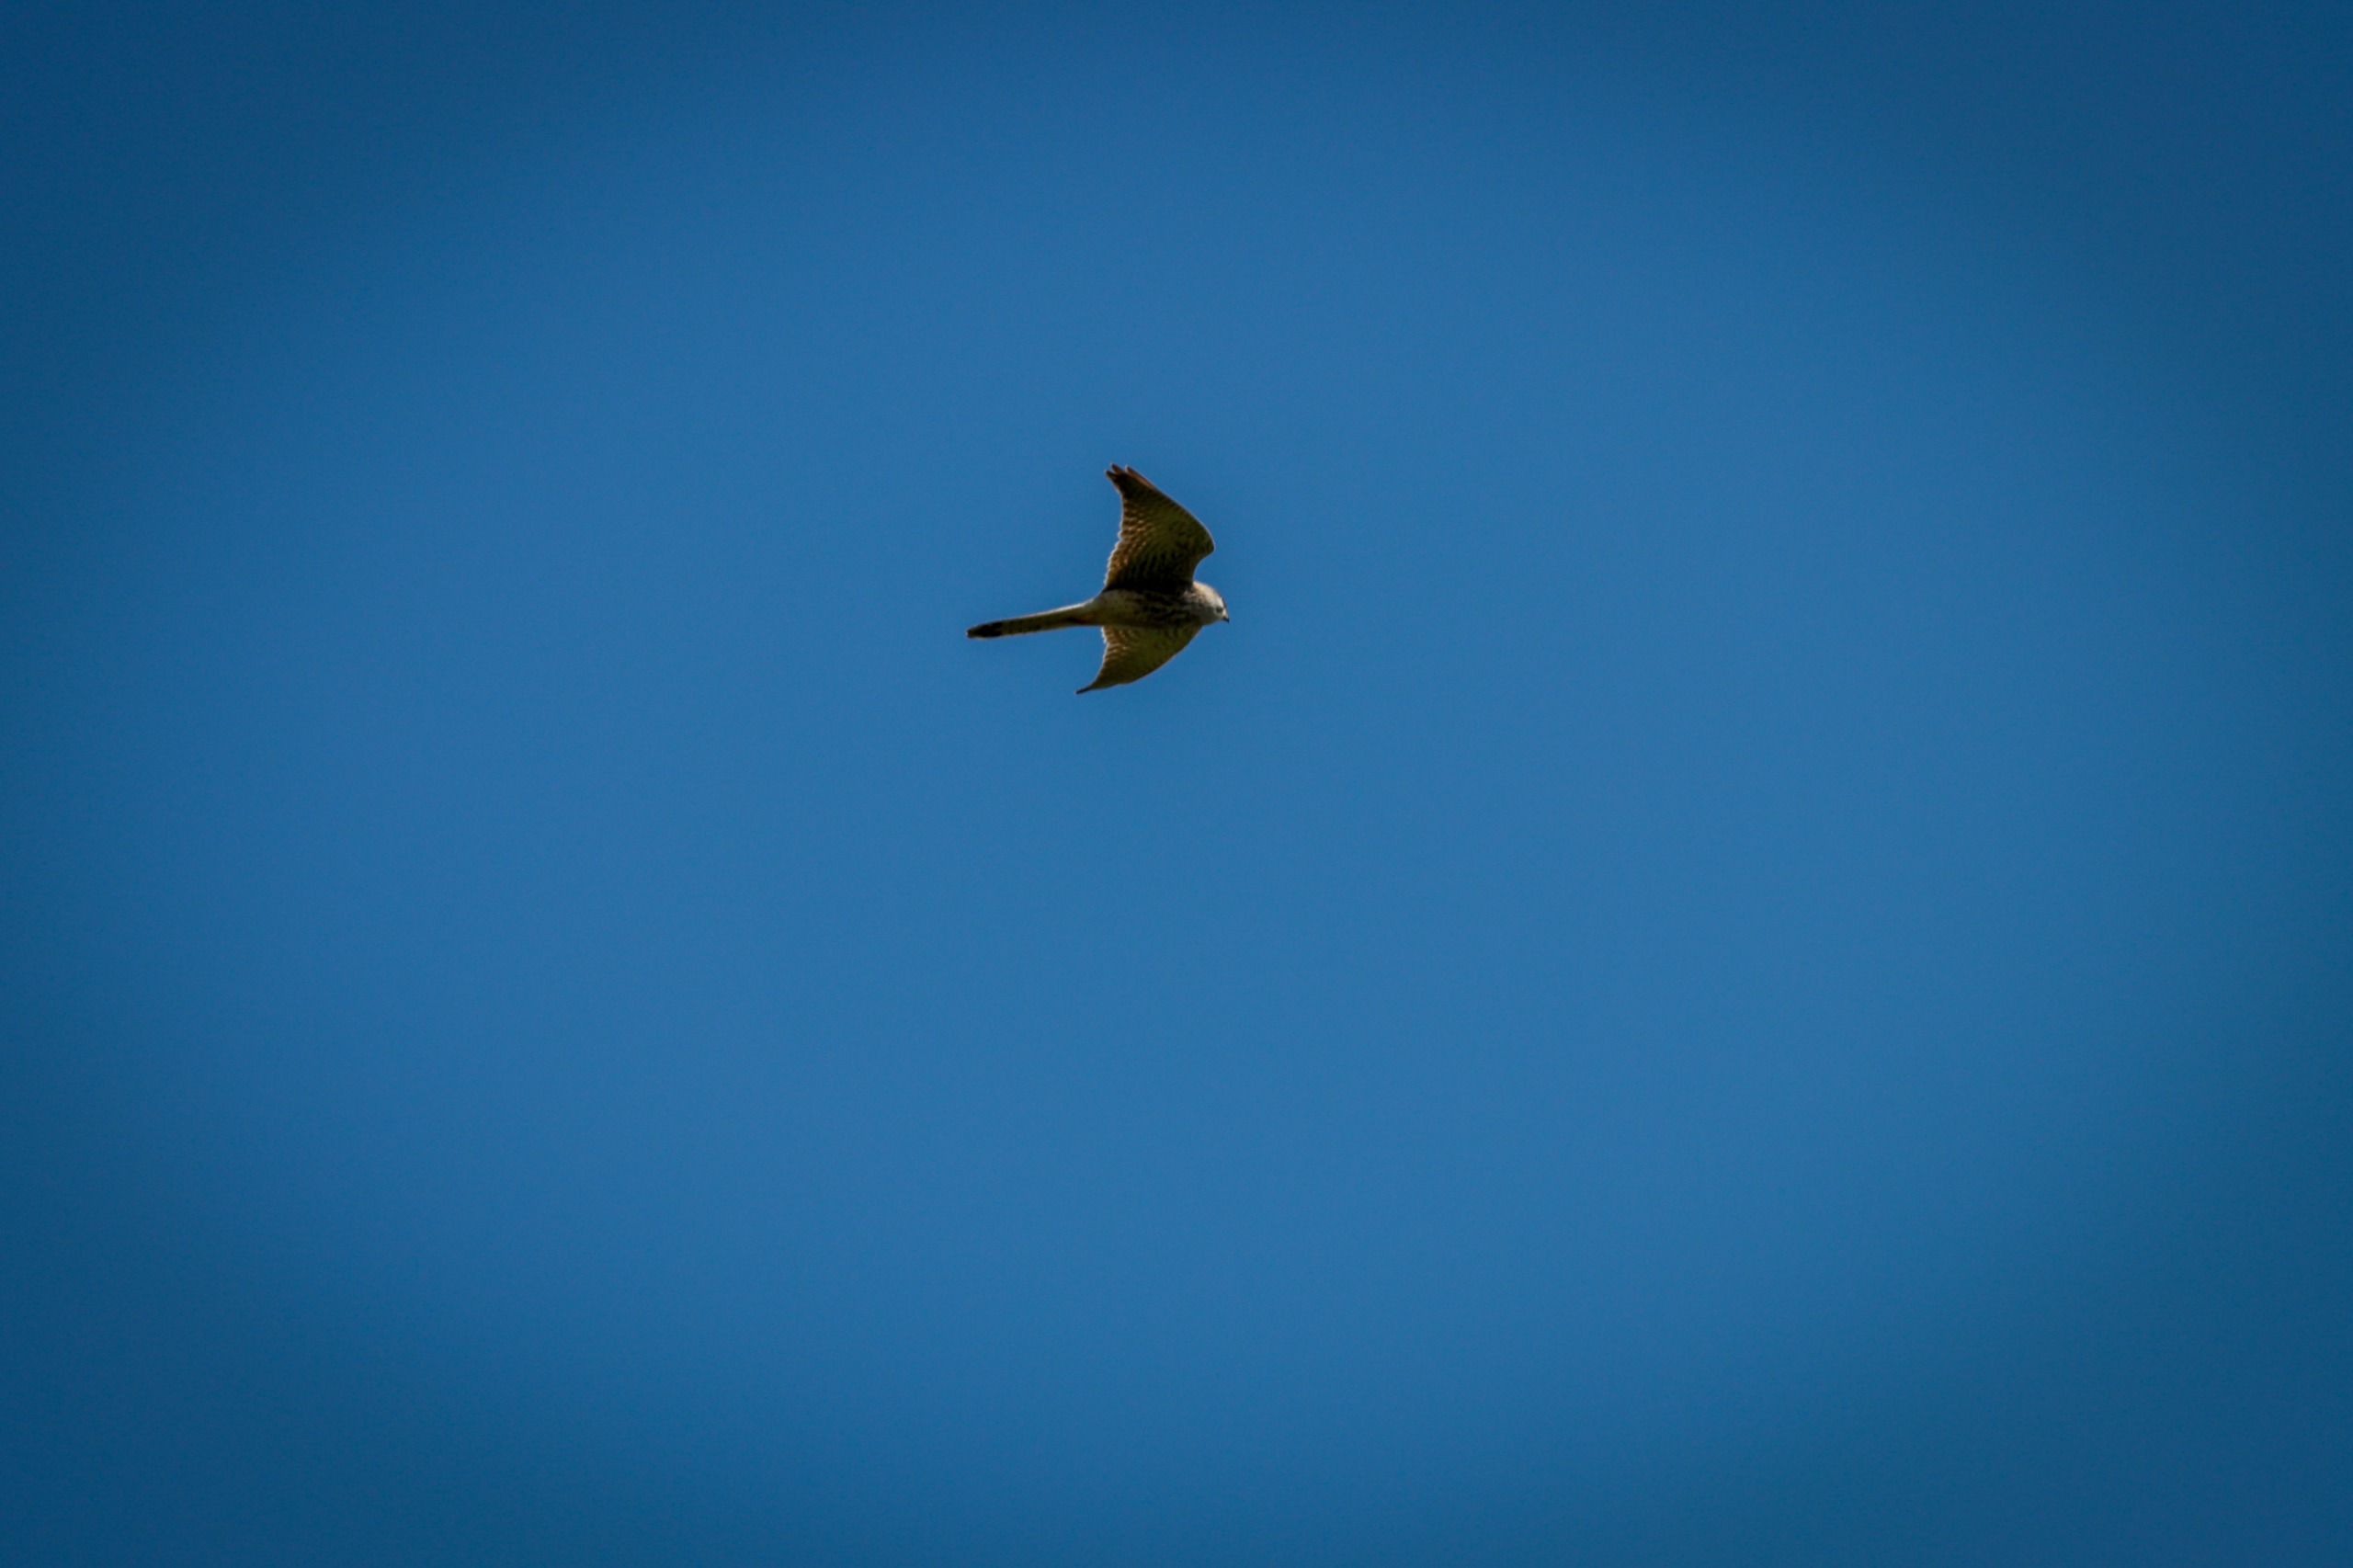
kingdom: Animalia
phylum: Chordata
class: Aves
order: Falconiformes
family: Falconidae
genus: Falco
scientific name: Falco tinnunculus
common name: Tårnfalk
